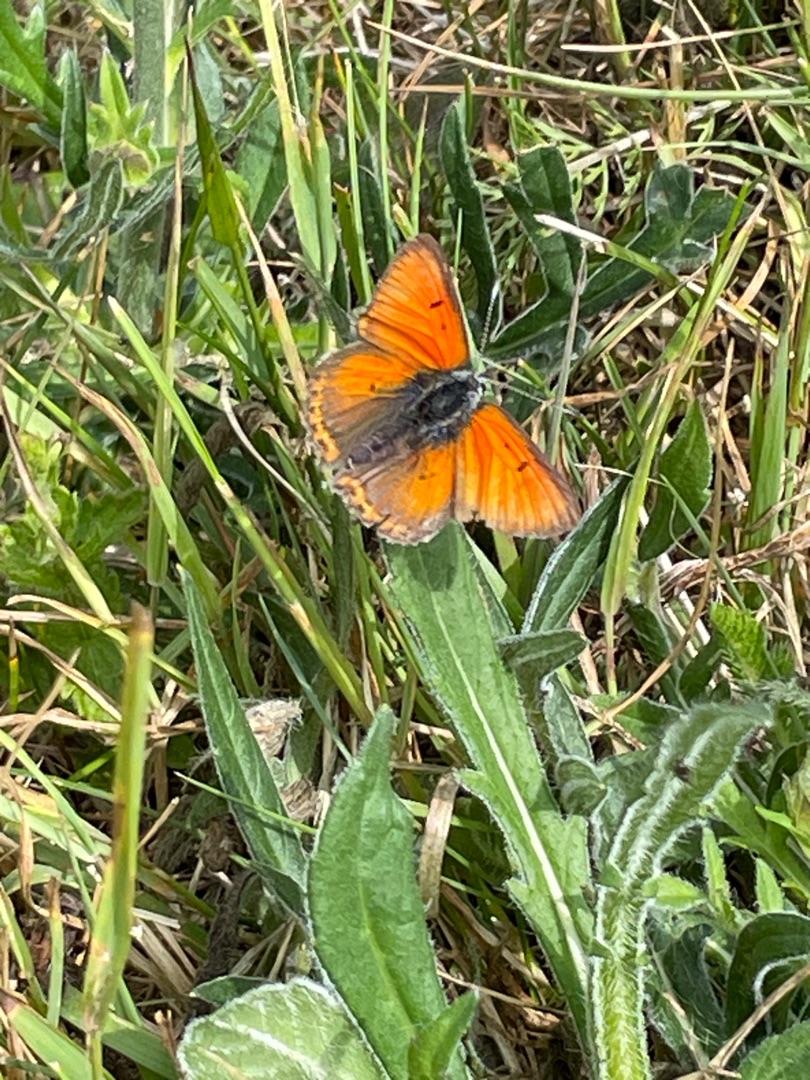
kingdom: Animalia
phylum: Arthropoda
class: Insecta
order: Lepidoptera
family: Lycaenidae
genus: Palaeochrysophanus
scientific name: Palaeochrysophanus hippothoe
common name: Violetrandet ildfugl
